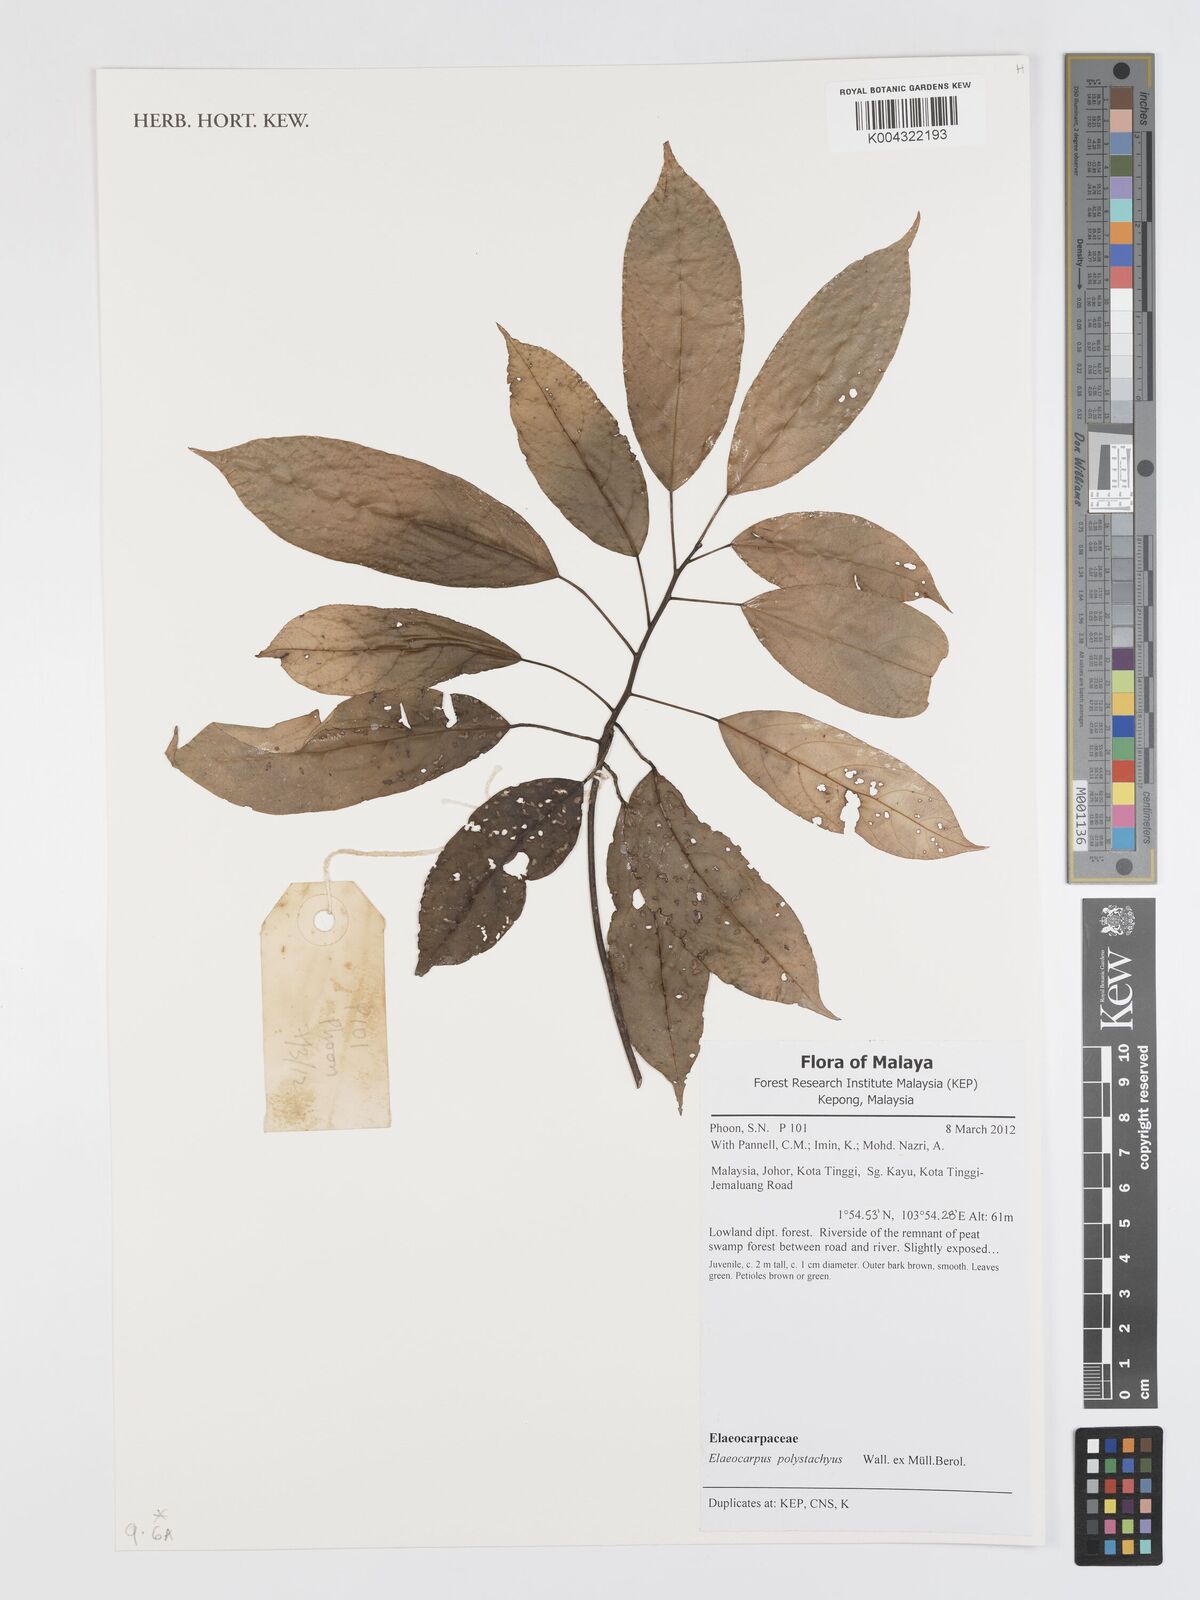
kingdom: Plantae
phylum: Tracheophyta
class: Magnoliopsida
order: Oxalidales
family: Elaeocarpaceae
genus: Elaeocarpus
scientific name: Elaeocarpus polystachyus
